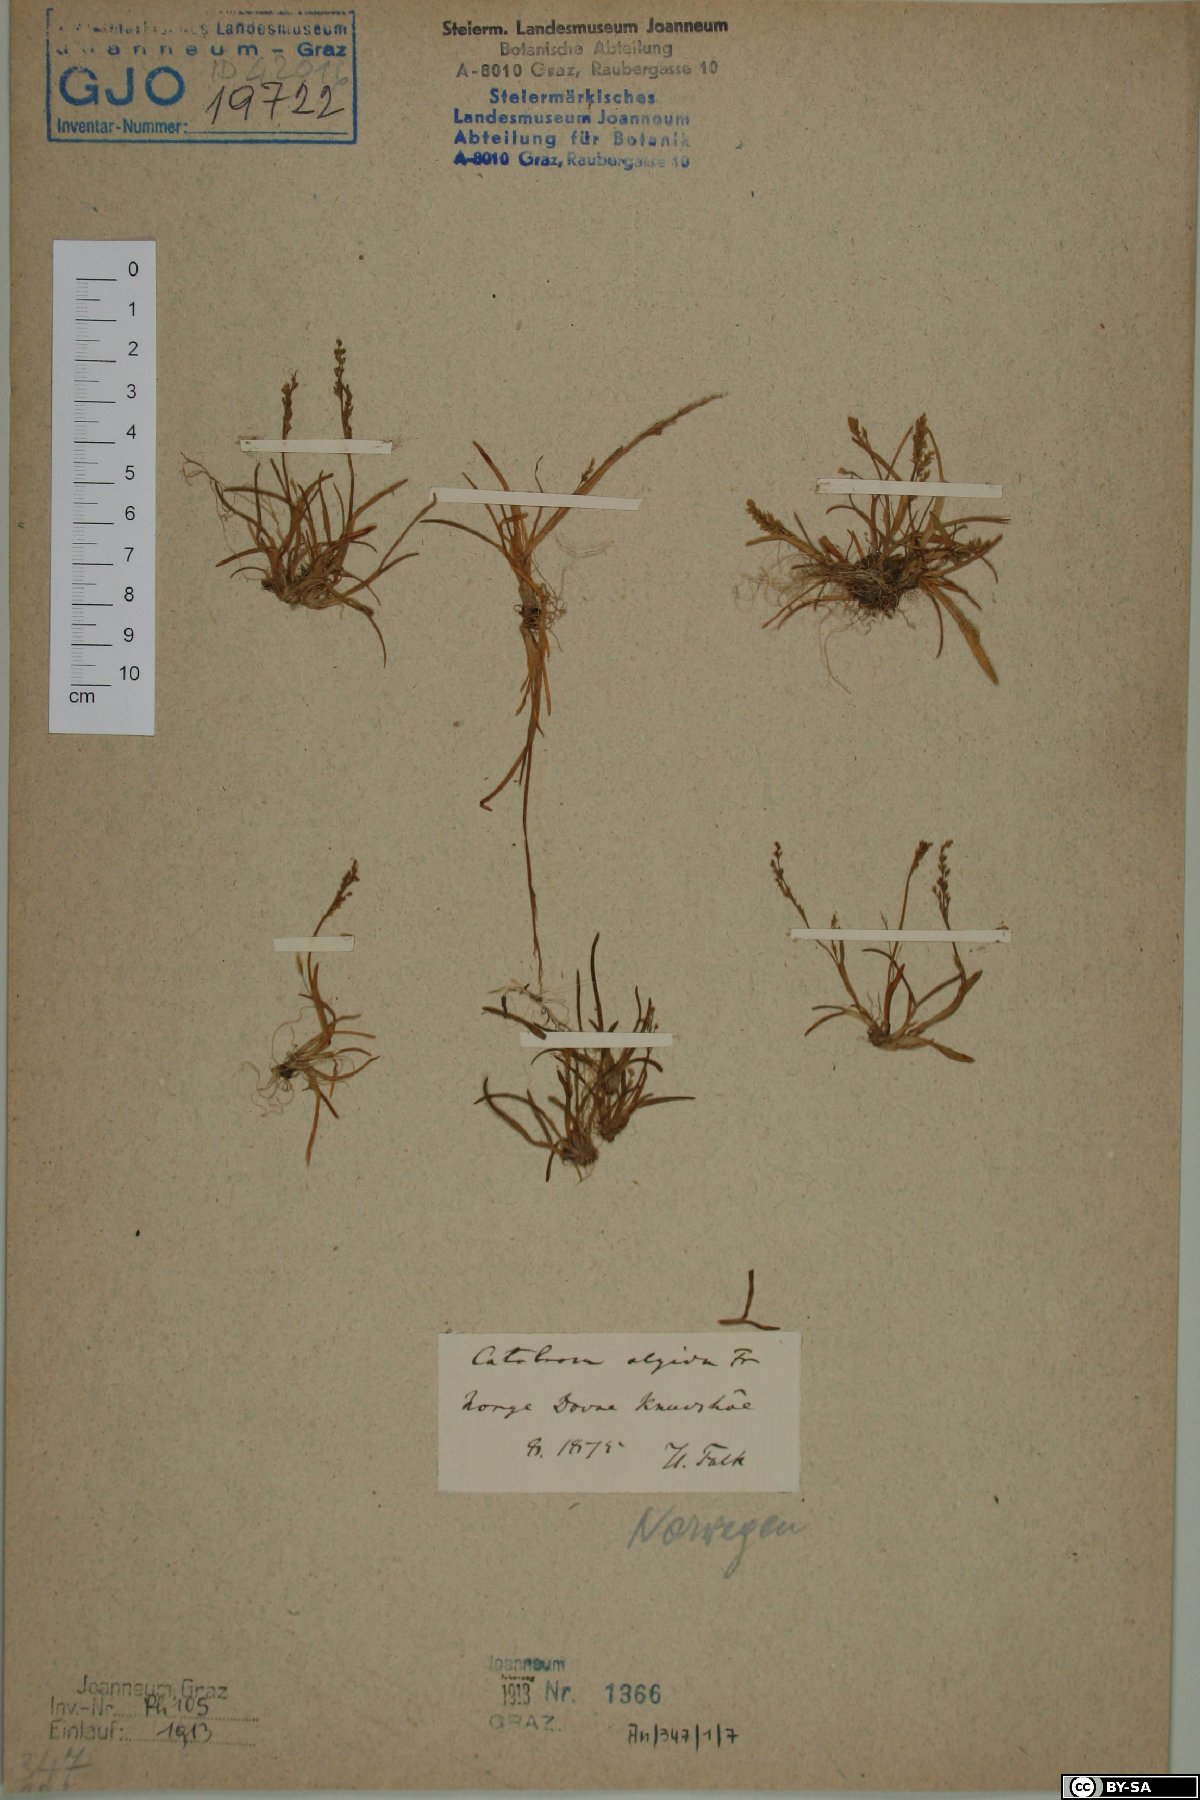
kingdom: Plantae
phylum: Tracheophyta
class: Liliopsida
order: Poales
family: Poaceae
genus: Phippsia
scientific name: Phippsia algida
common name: Ice grass
